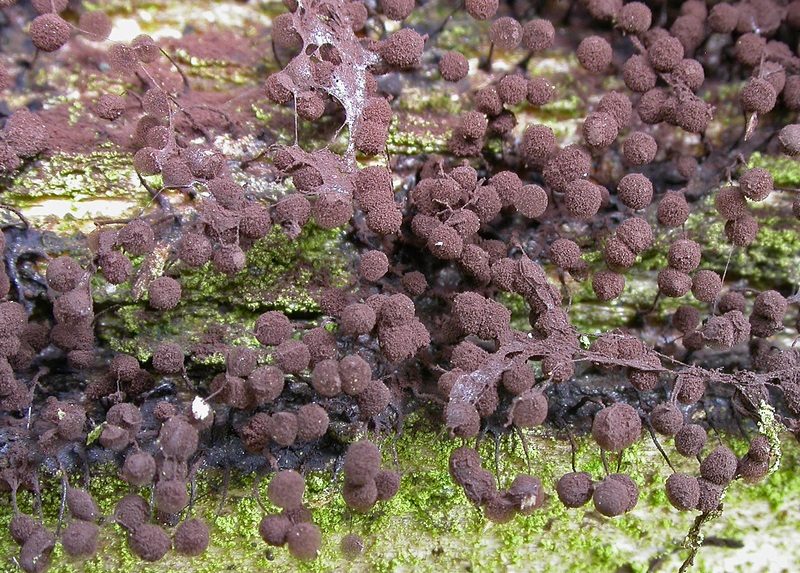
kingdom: Protozoa
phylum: Mycetozoa
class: Myxomycetes
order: Stemonitidales
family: Stemonitidaceae
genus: Comatricha
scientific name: Comatricha nigra
